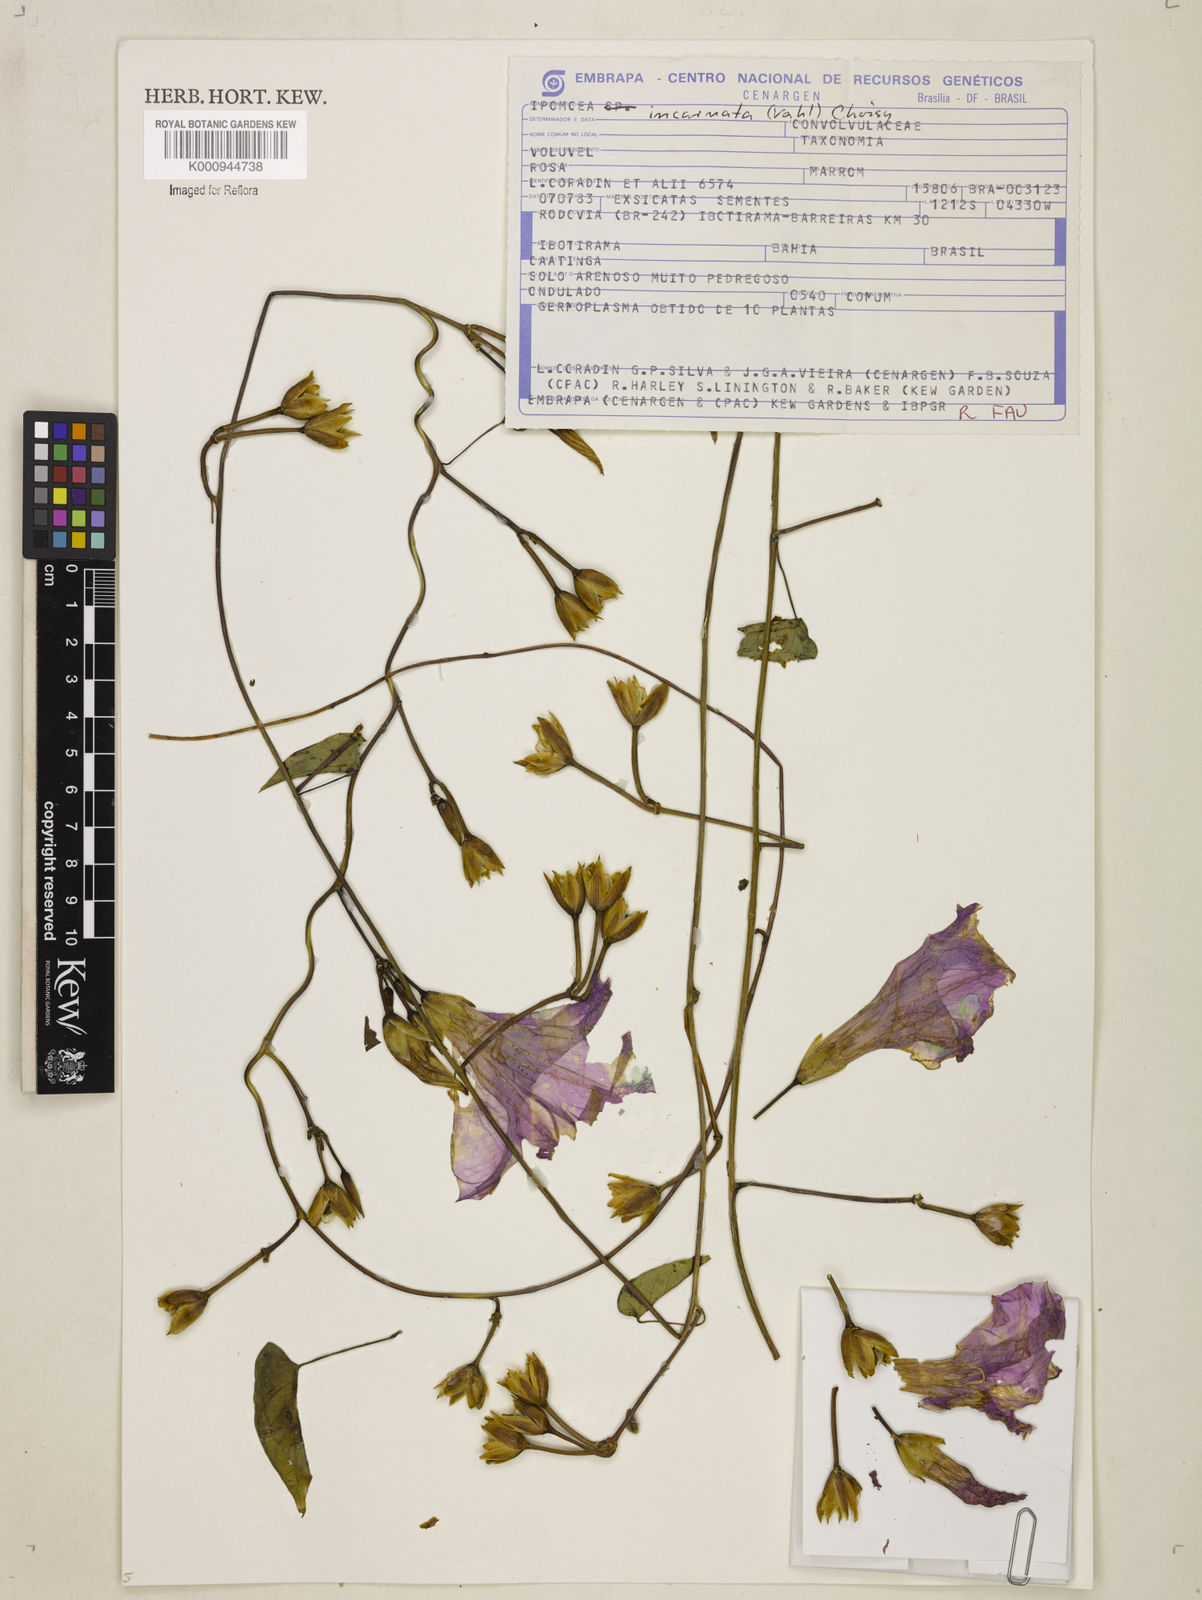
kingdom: Plantae
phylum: Tracheophyta
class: Magnoliopsida
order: Solanales
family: Convolvulaceae
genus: Ipomoea
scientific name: Ipomoea incarnata
